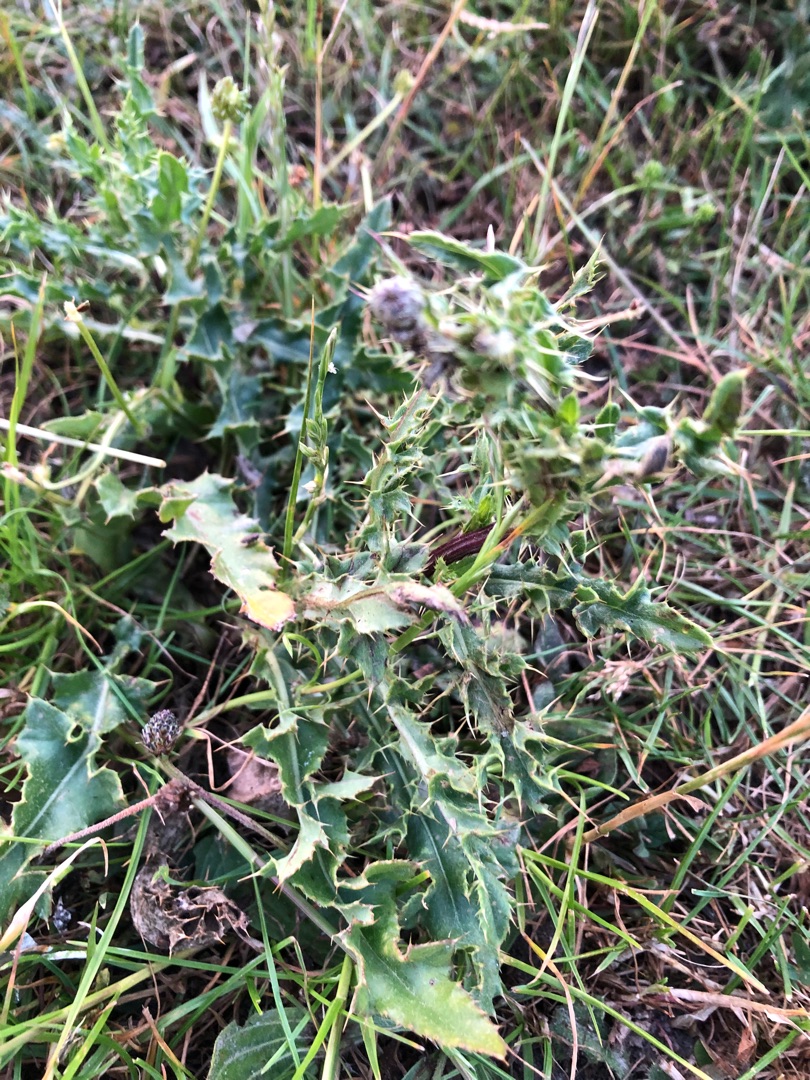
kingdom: Plantae
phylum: Tracheophyta
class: Magnoliopsida
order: Asterales
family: Asteraceae
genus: Cirsium
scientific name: Cirsium arvense
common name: Ager-tidsel
